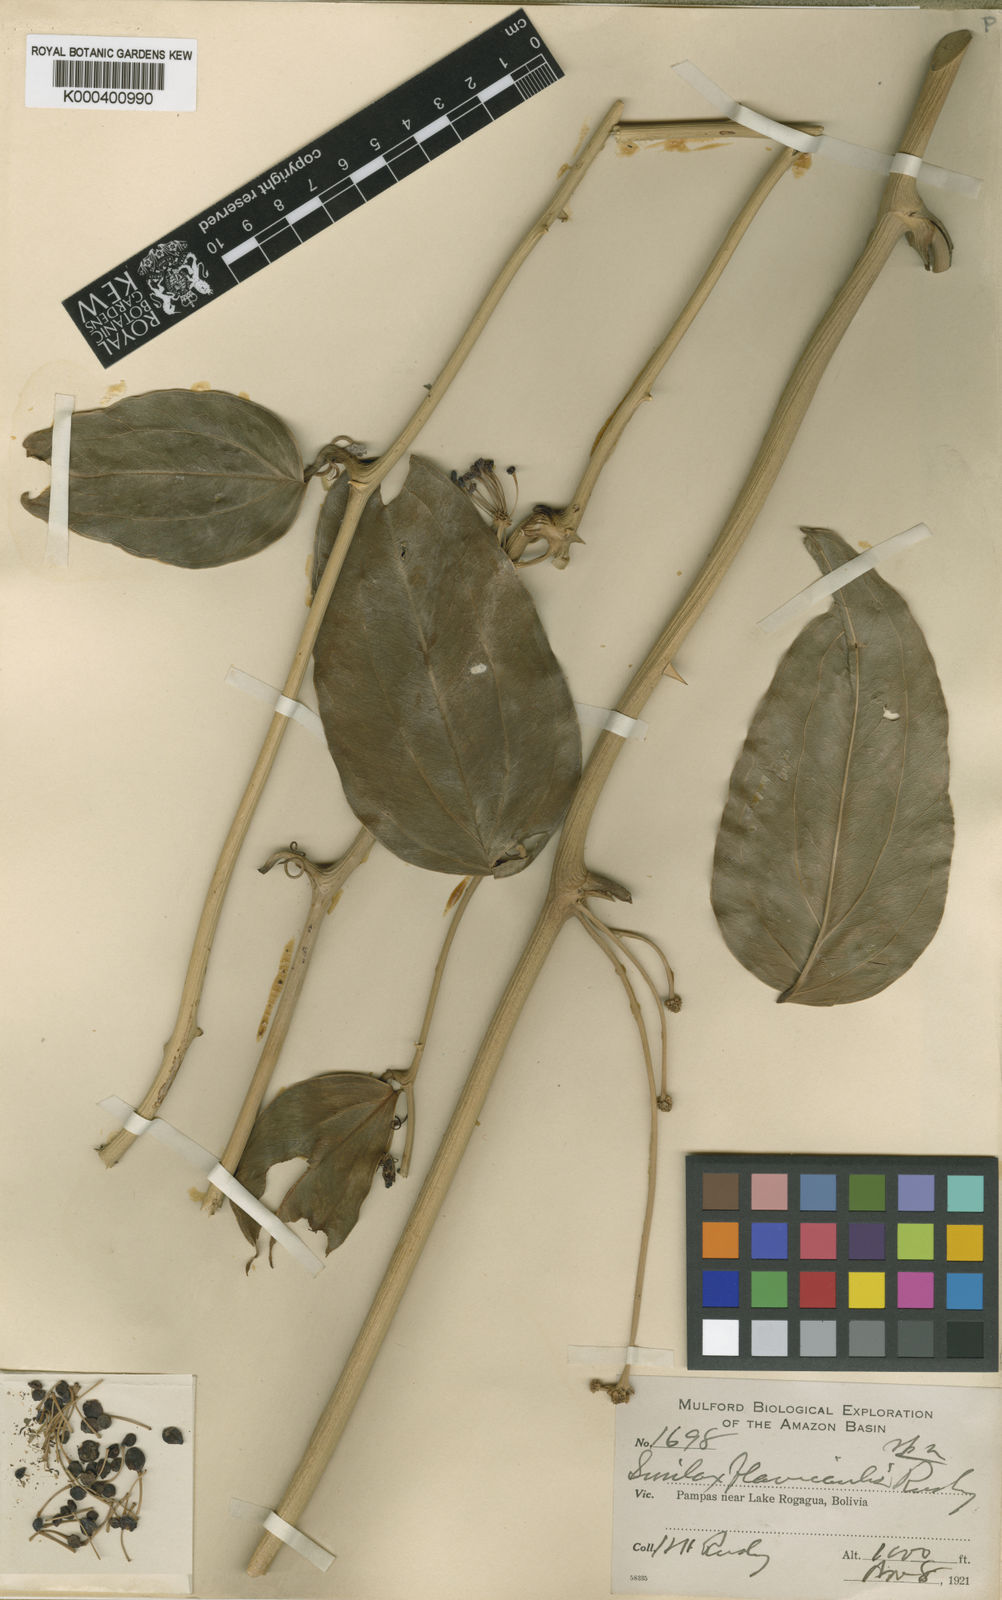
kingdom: Plantae
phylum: Tracheophyta
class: Liliopsida
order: Liliales
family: Smilacaceae
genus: Smilax
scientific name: Smilax flavicaulis
